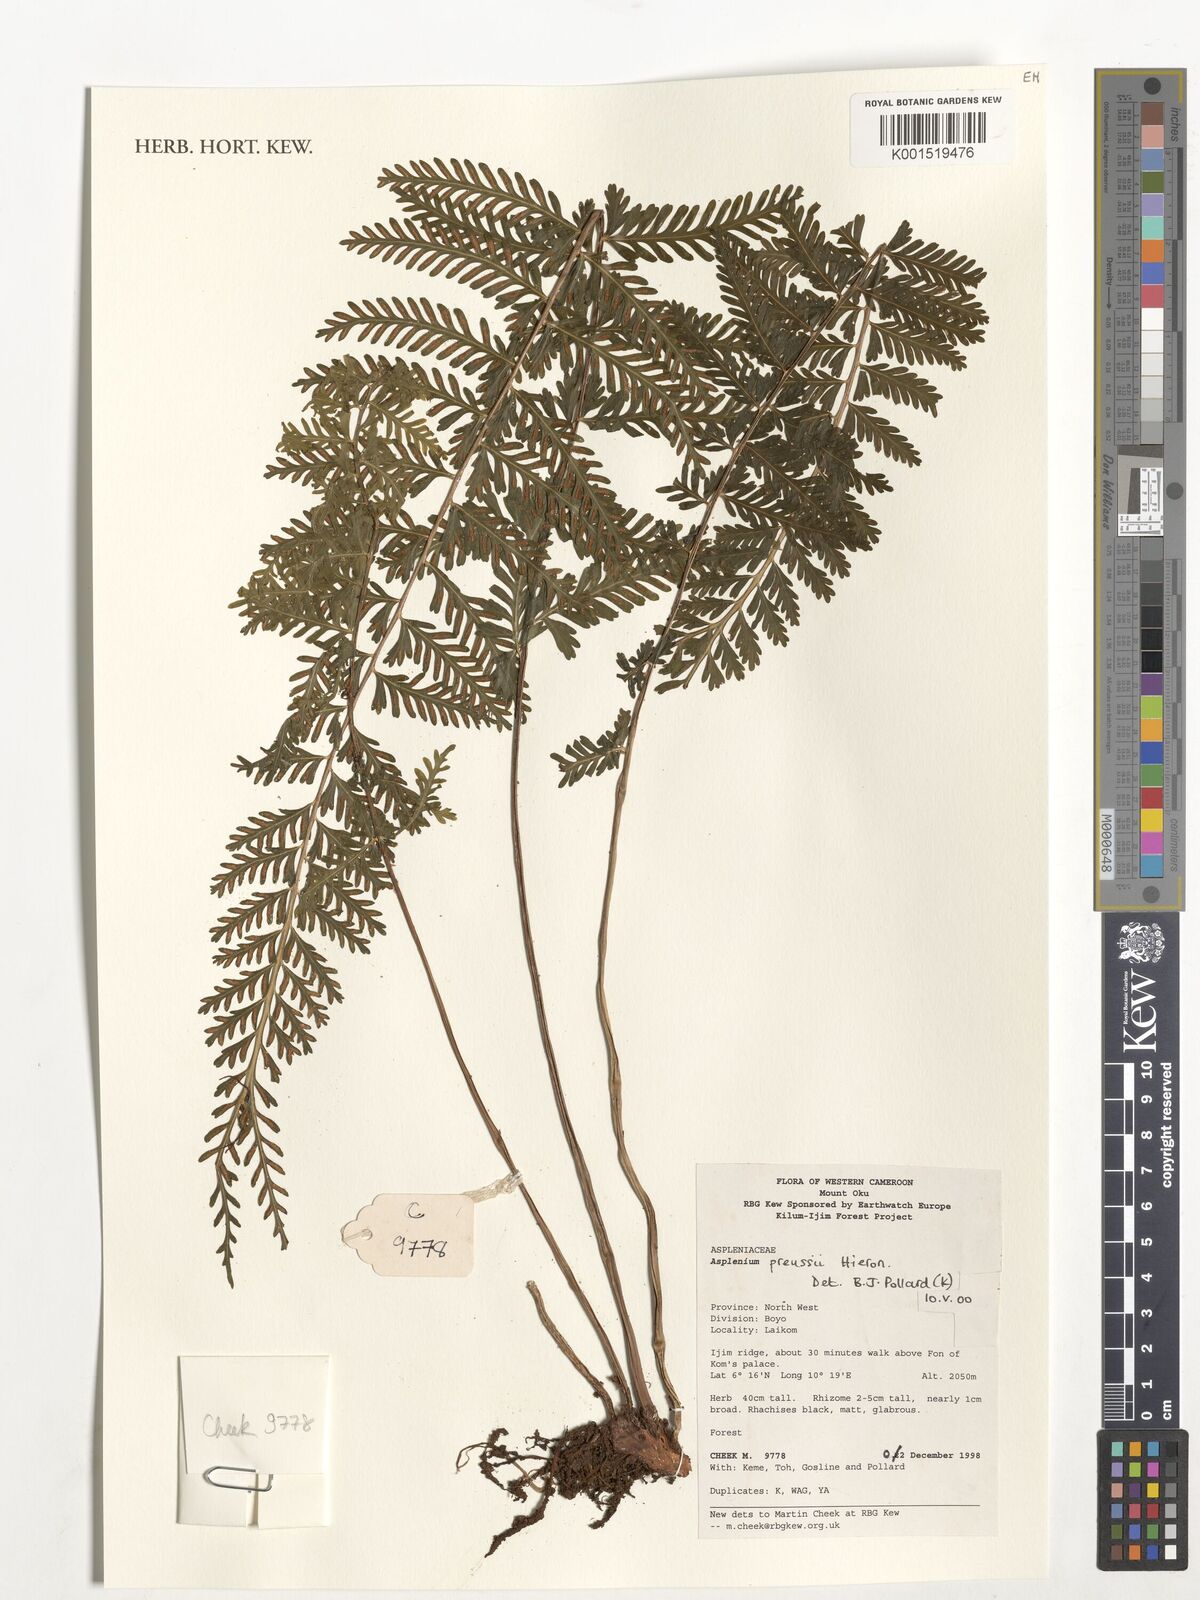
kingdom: Plantae
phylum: Tracheophyta
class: Polypodiopsida
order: Polypodiales
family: Aspleniaceae
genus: Asplenium
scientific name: Asplenium preussii
